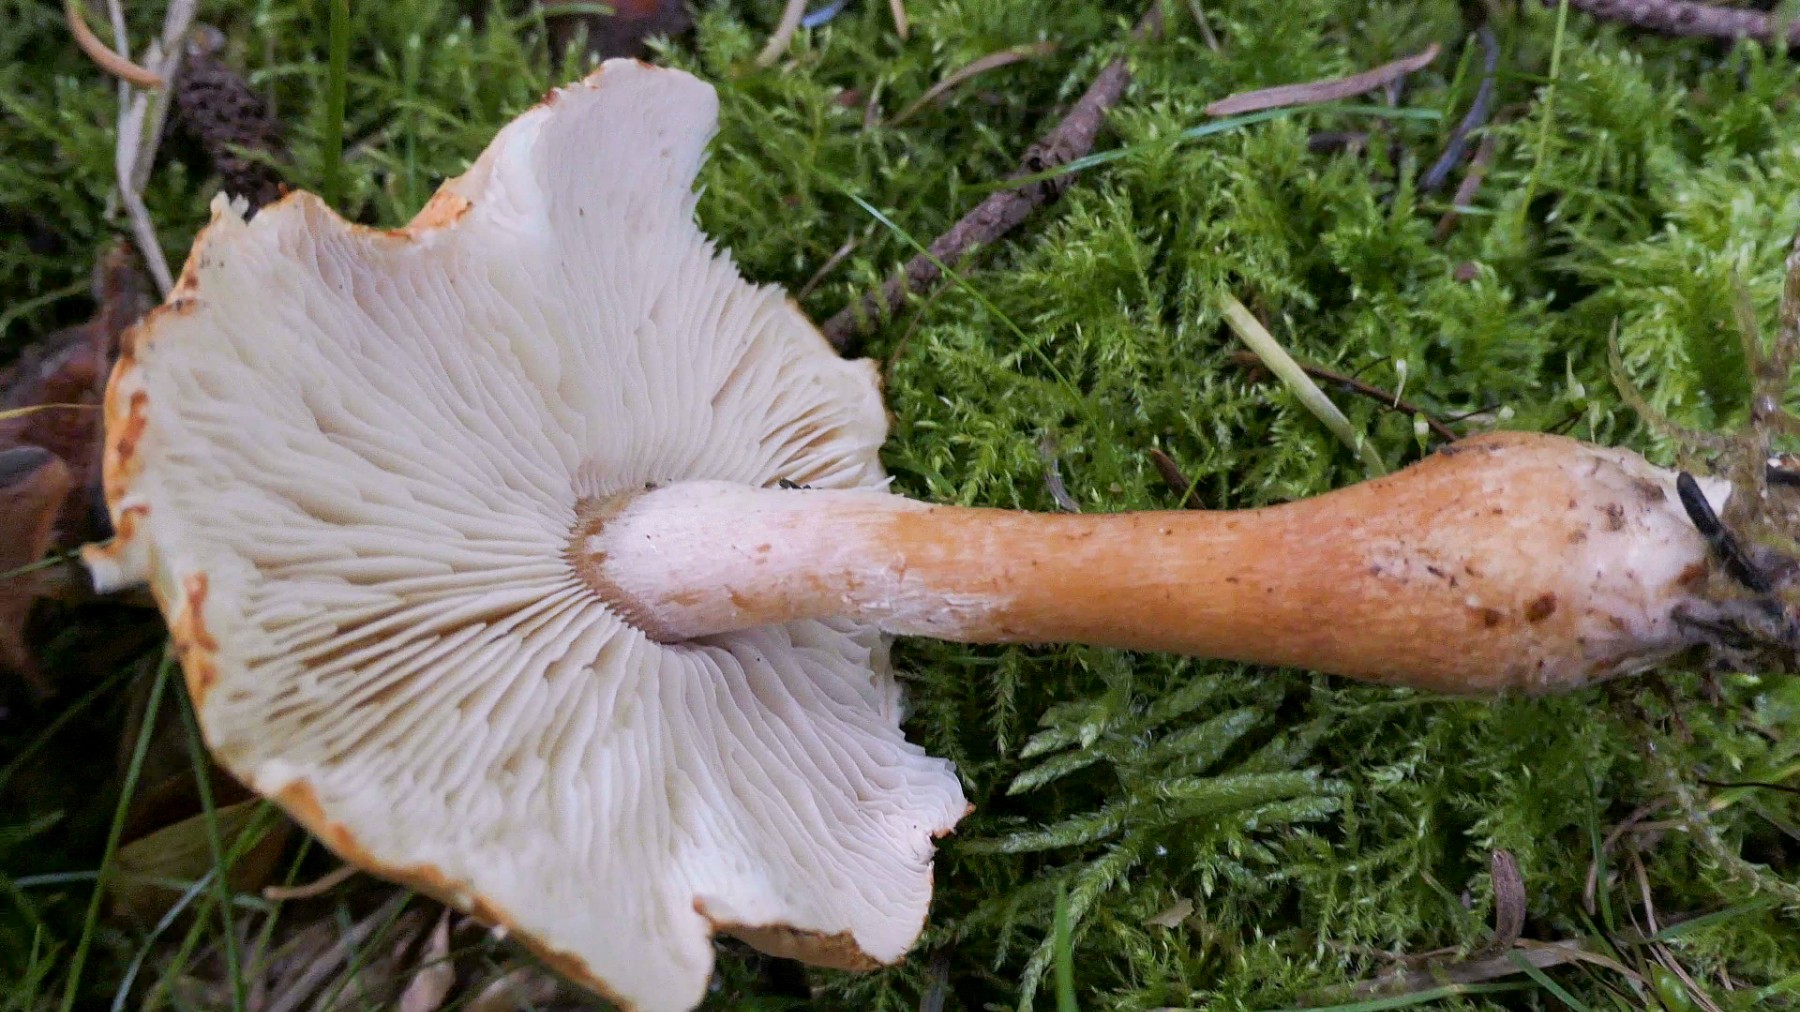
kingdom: Fungi
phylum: Basidiomycota
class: Agaricomycetes
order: Agaricales
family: Agaricaceae
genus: Cystodermella
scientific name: Cystodermella
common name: grynhat
